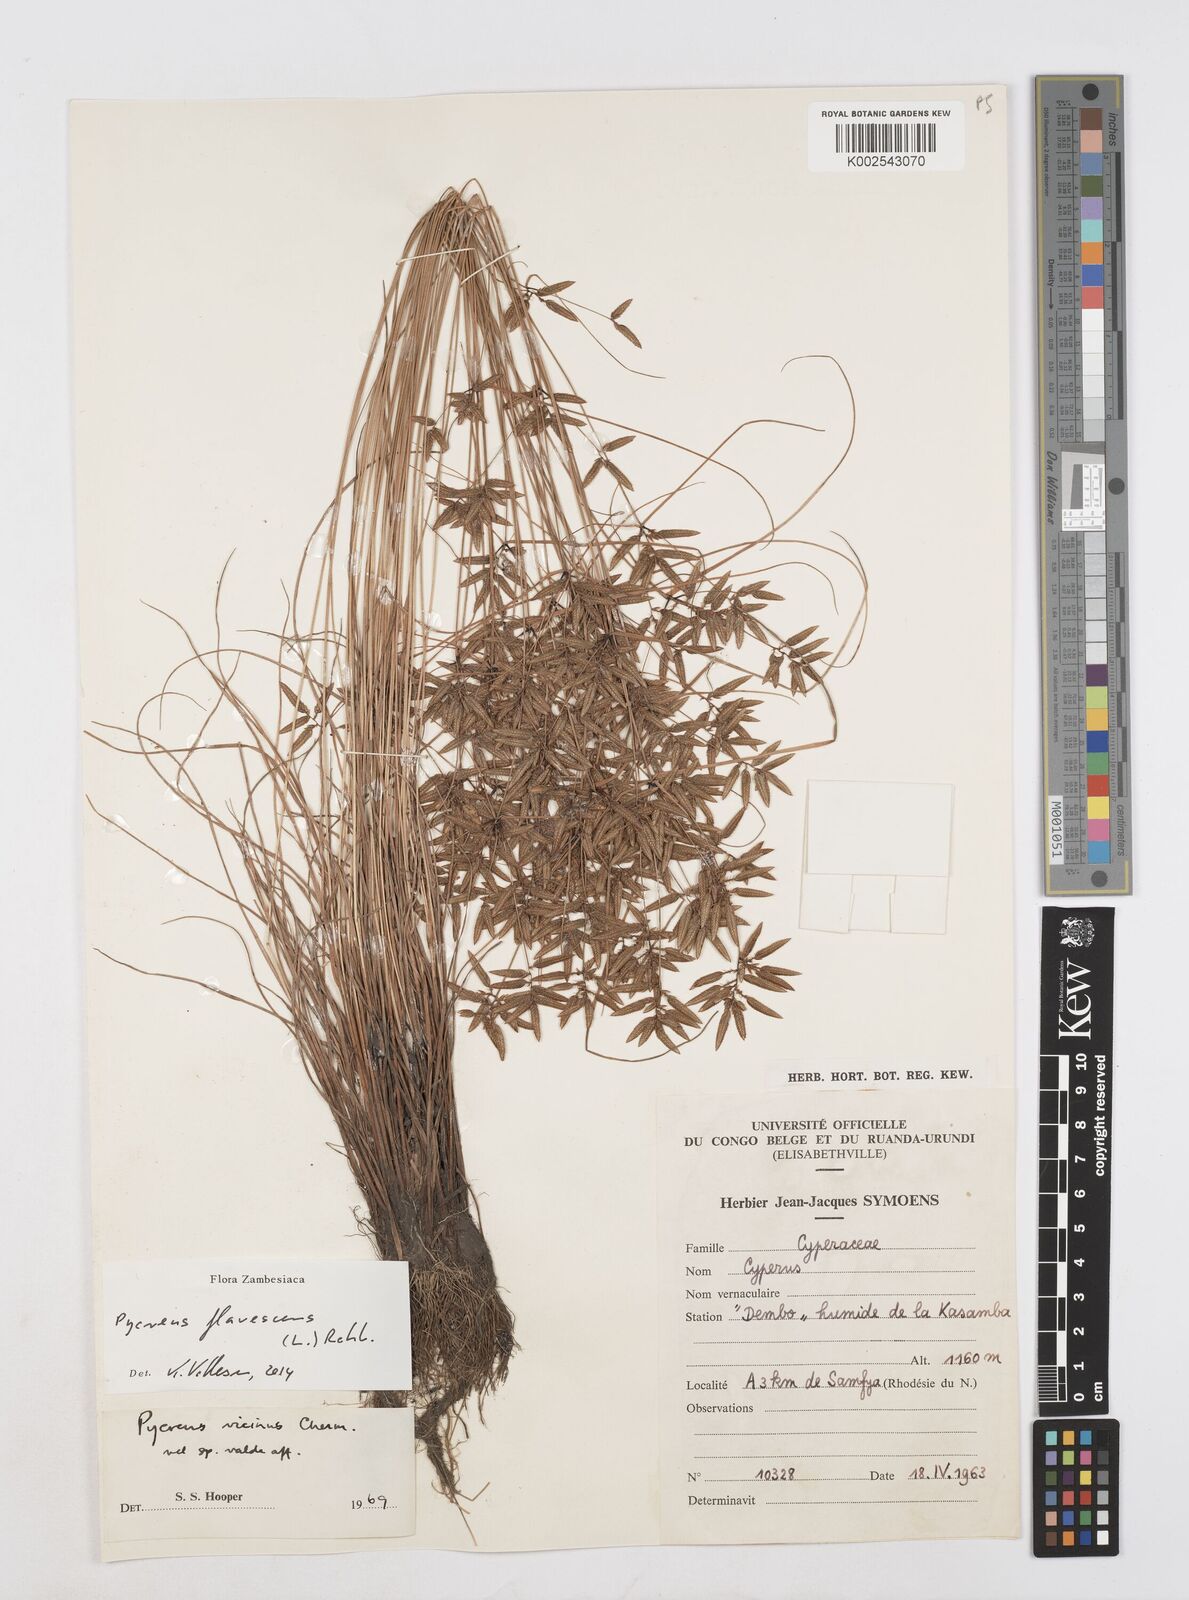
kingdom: Plantae
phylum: Tracheophyta
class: Liliopsida
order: Poales
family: Cyperaceae
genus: Cyperus
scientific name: Cyperus flavescens
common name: Yellow galingale
